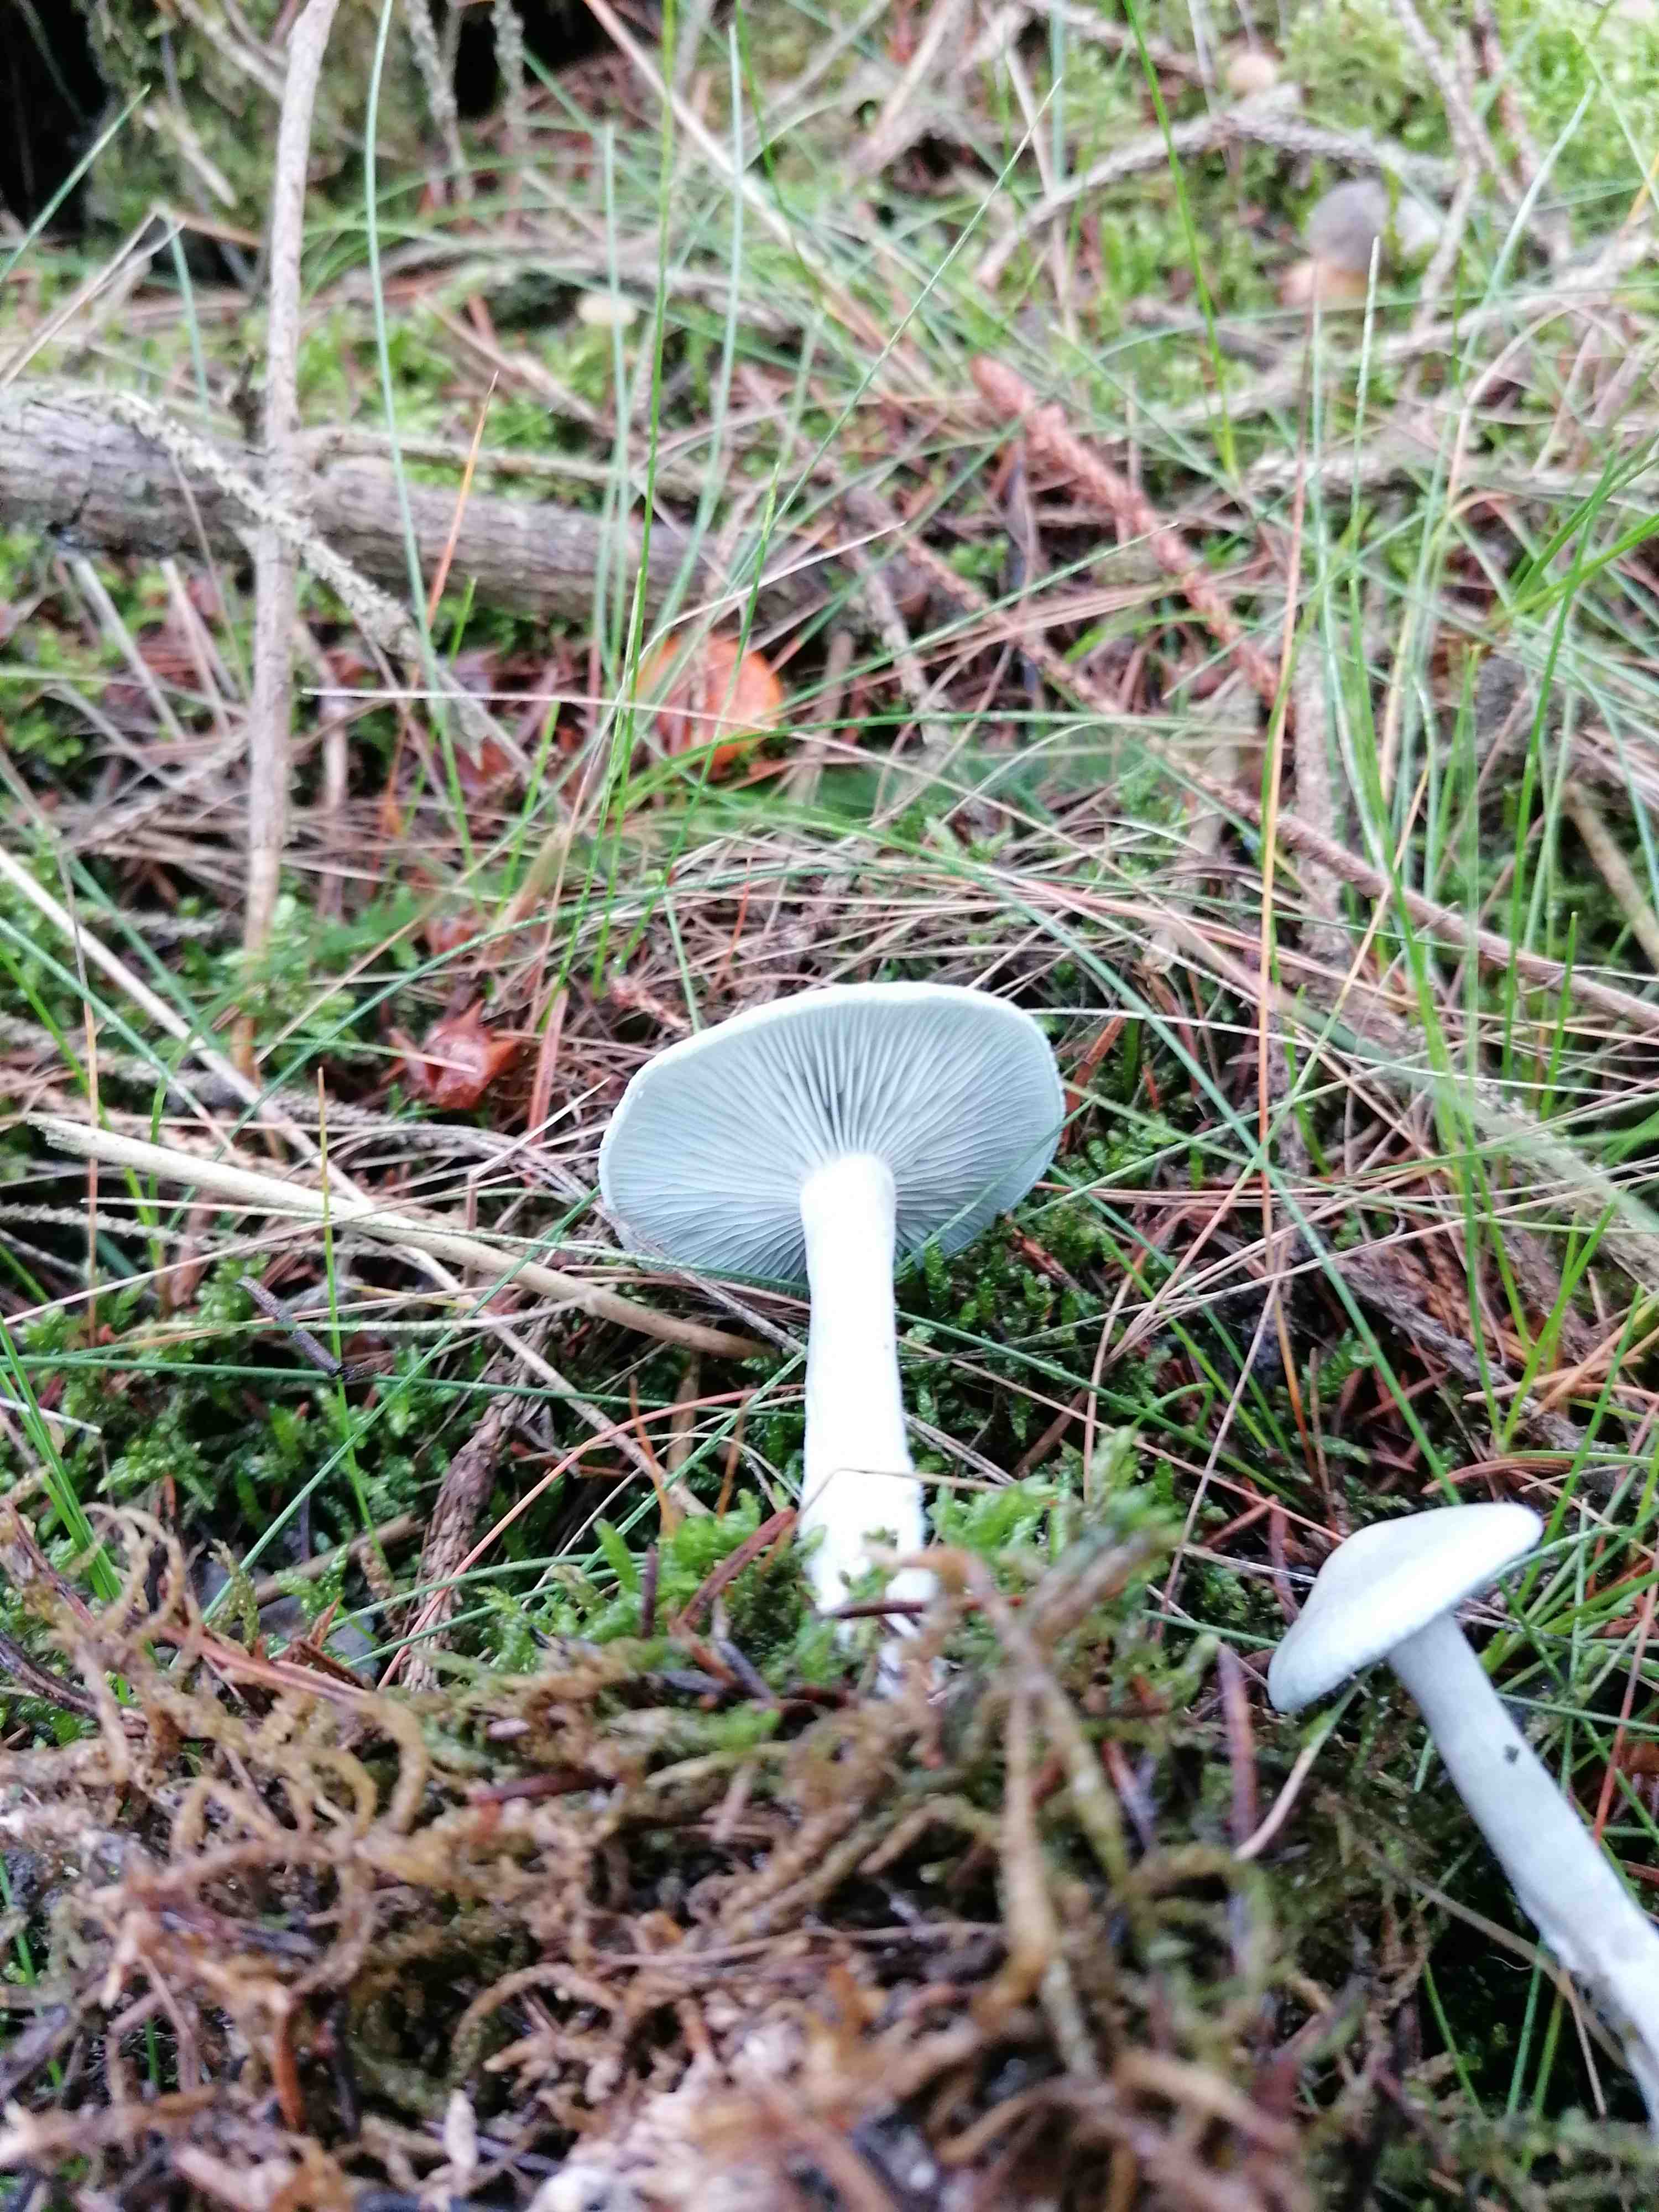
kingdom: Fungi
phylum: Basidiomycota
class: Agaricomycetes
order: Agaricales
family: Tricholomataceae
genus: Clitocybe
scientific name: Clitocybe odora
